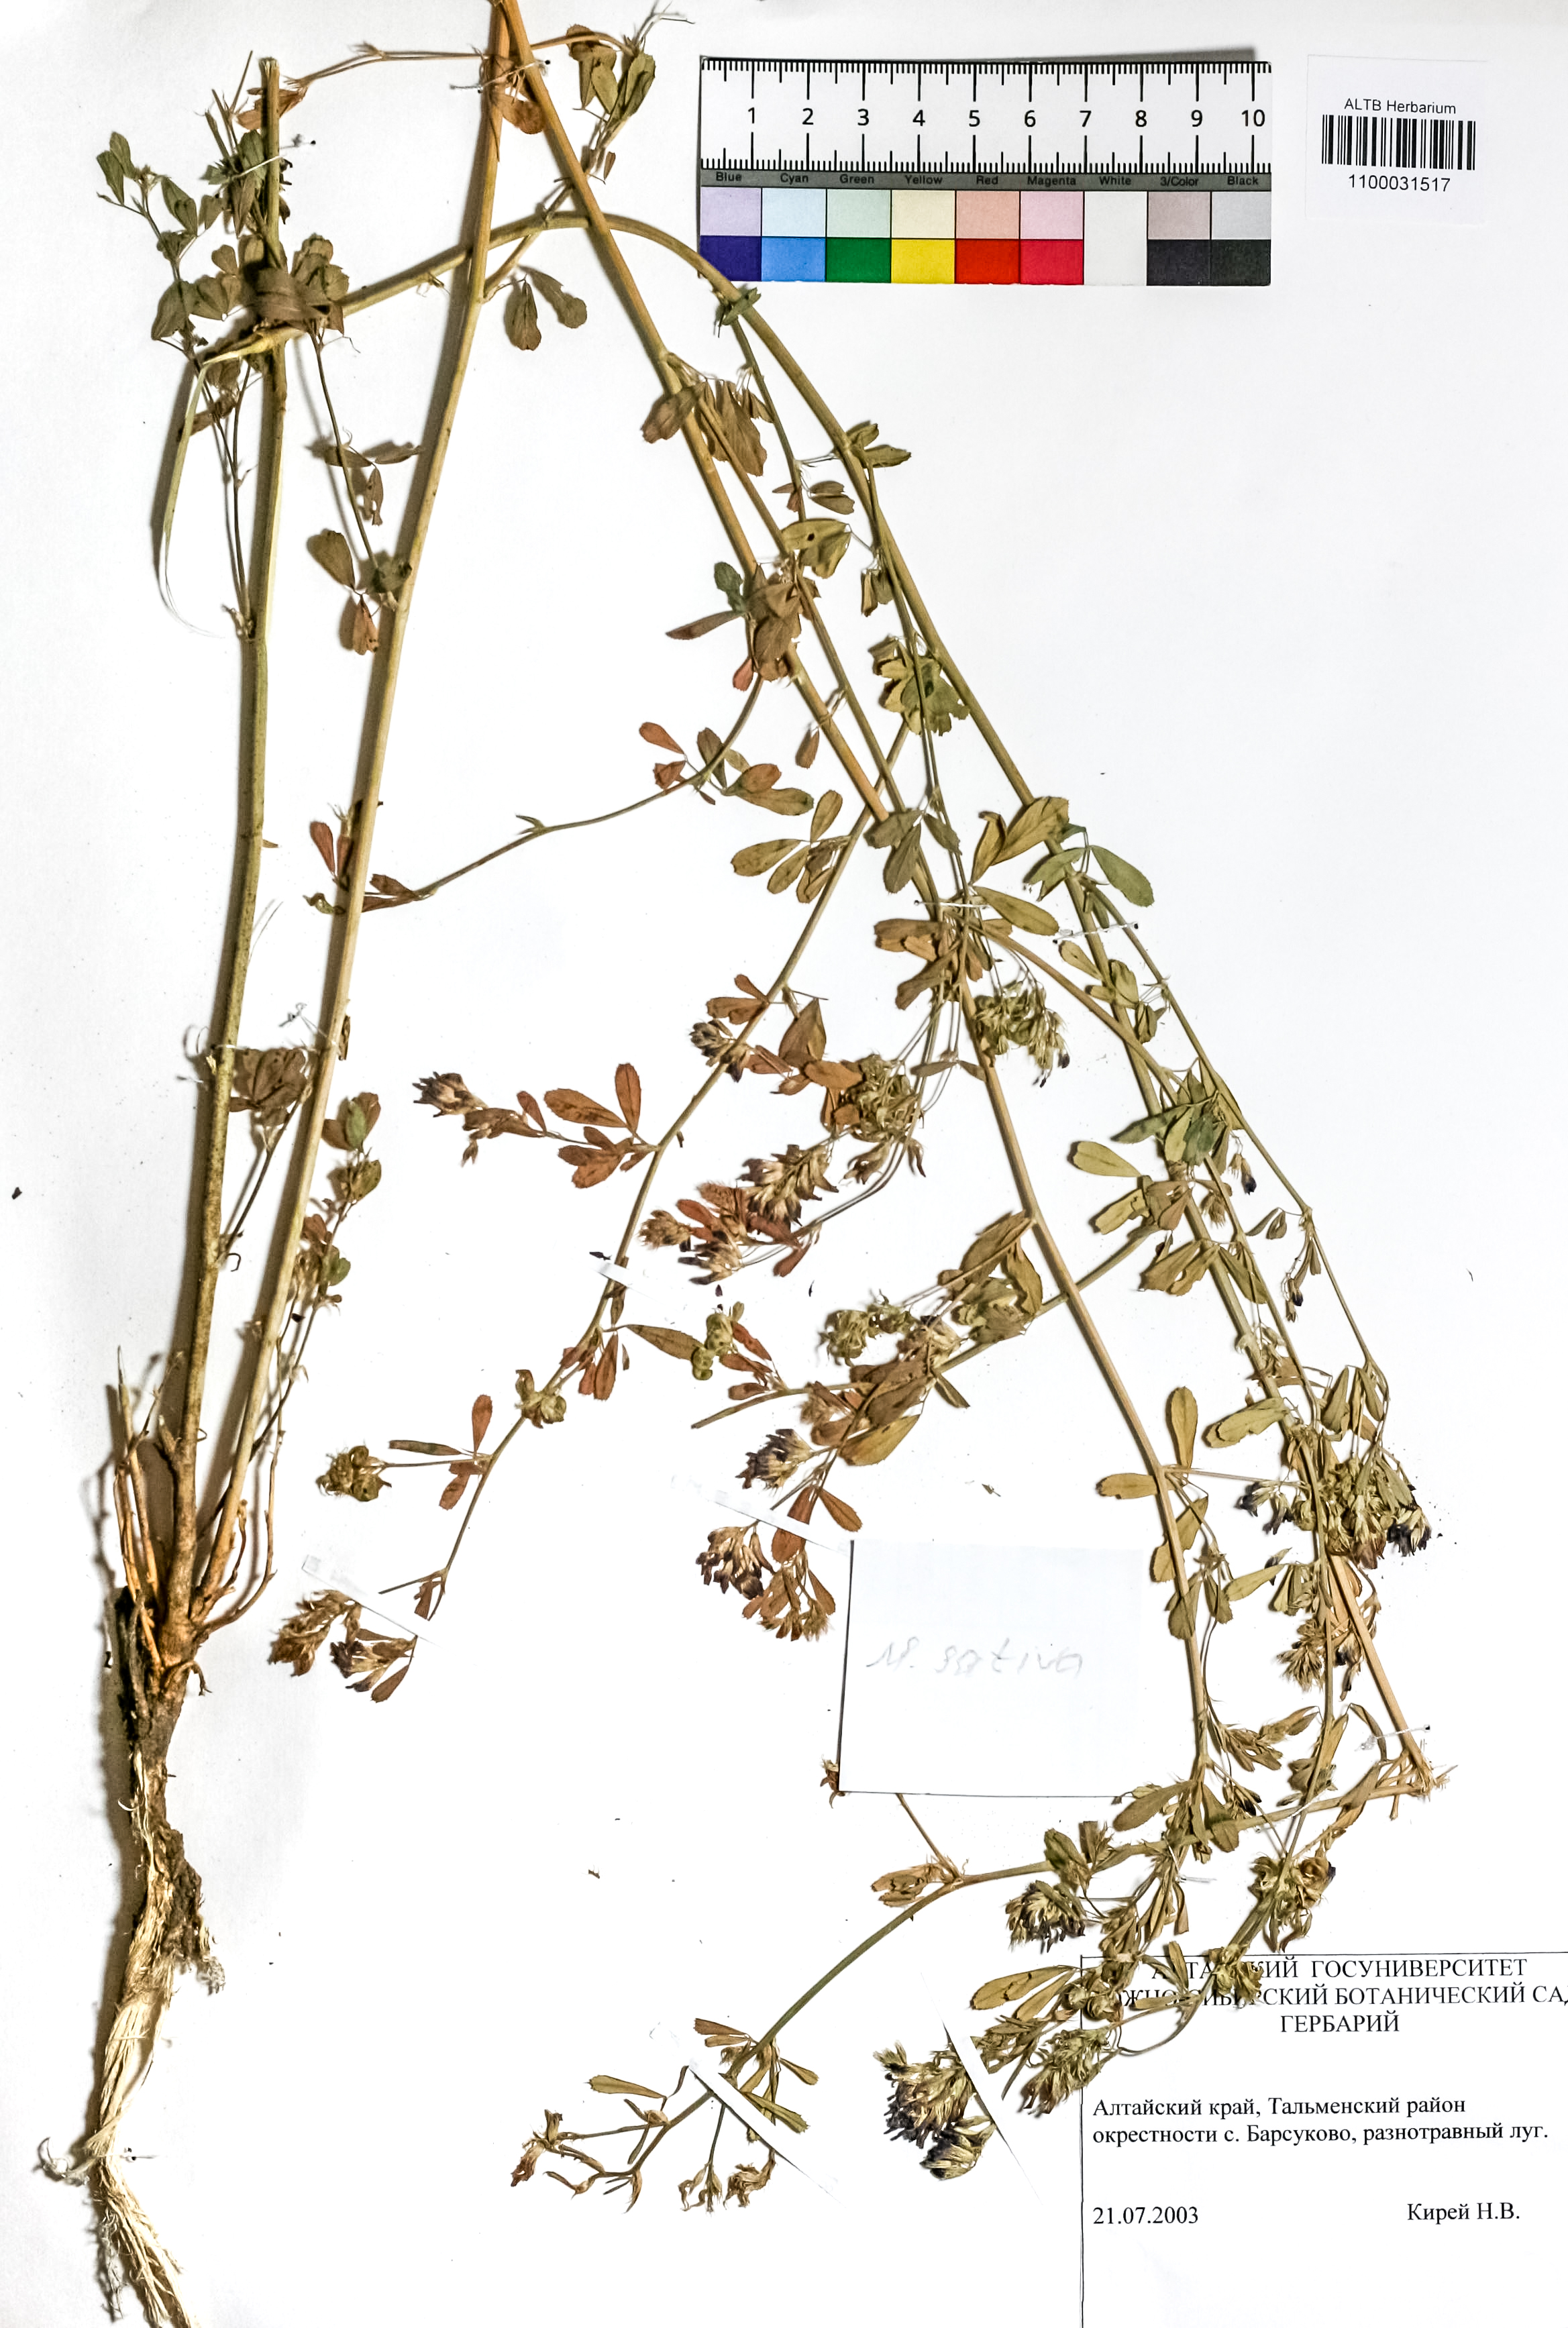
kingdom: Plantae
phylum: Tracheophyta
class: Magnoliopsida
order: Fabales
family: Fabaceae
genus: Medicago
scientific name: Medicago sativa
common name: Alfalfa
